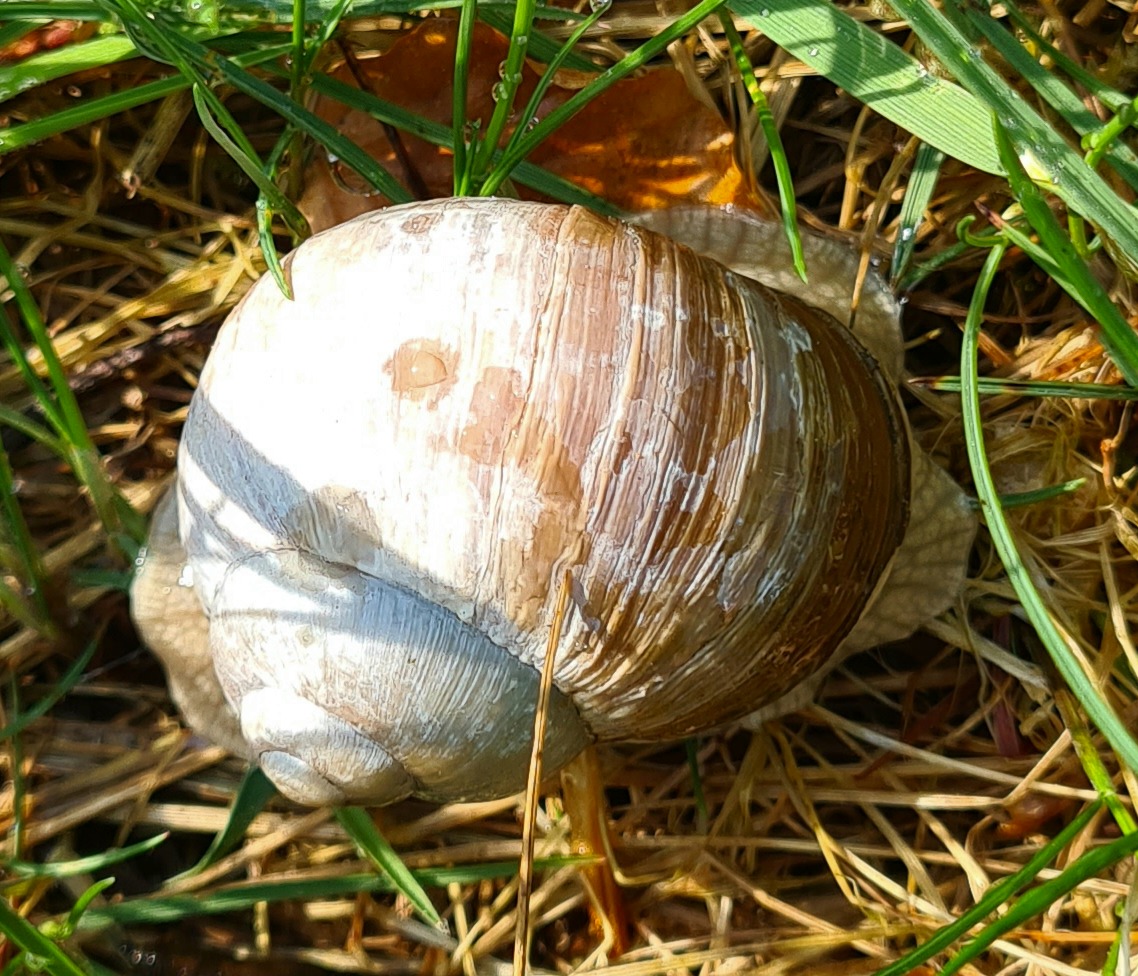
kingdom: Animalia
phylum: Mollusca
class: Gastropoda
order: Stylommatophora
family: Helicidae
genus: Helix
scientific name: Helix pomatia
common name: Vinbjergsnegl
